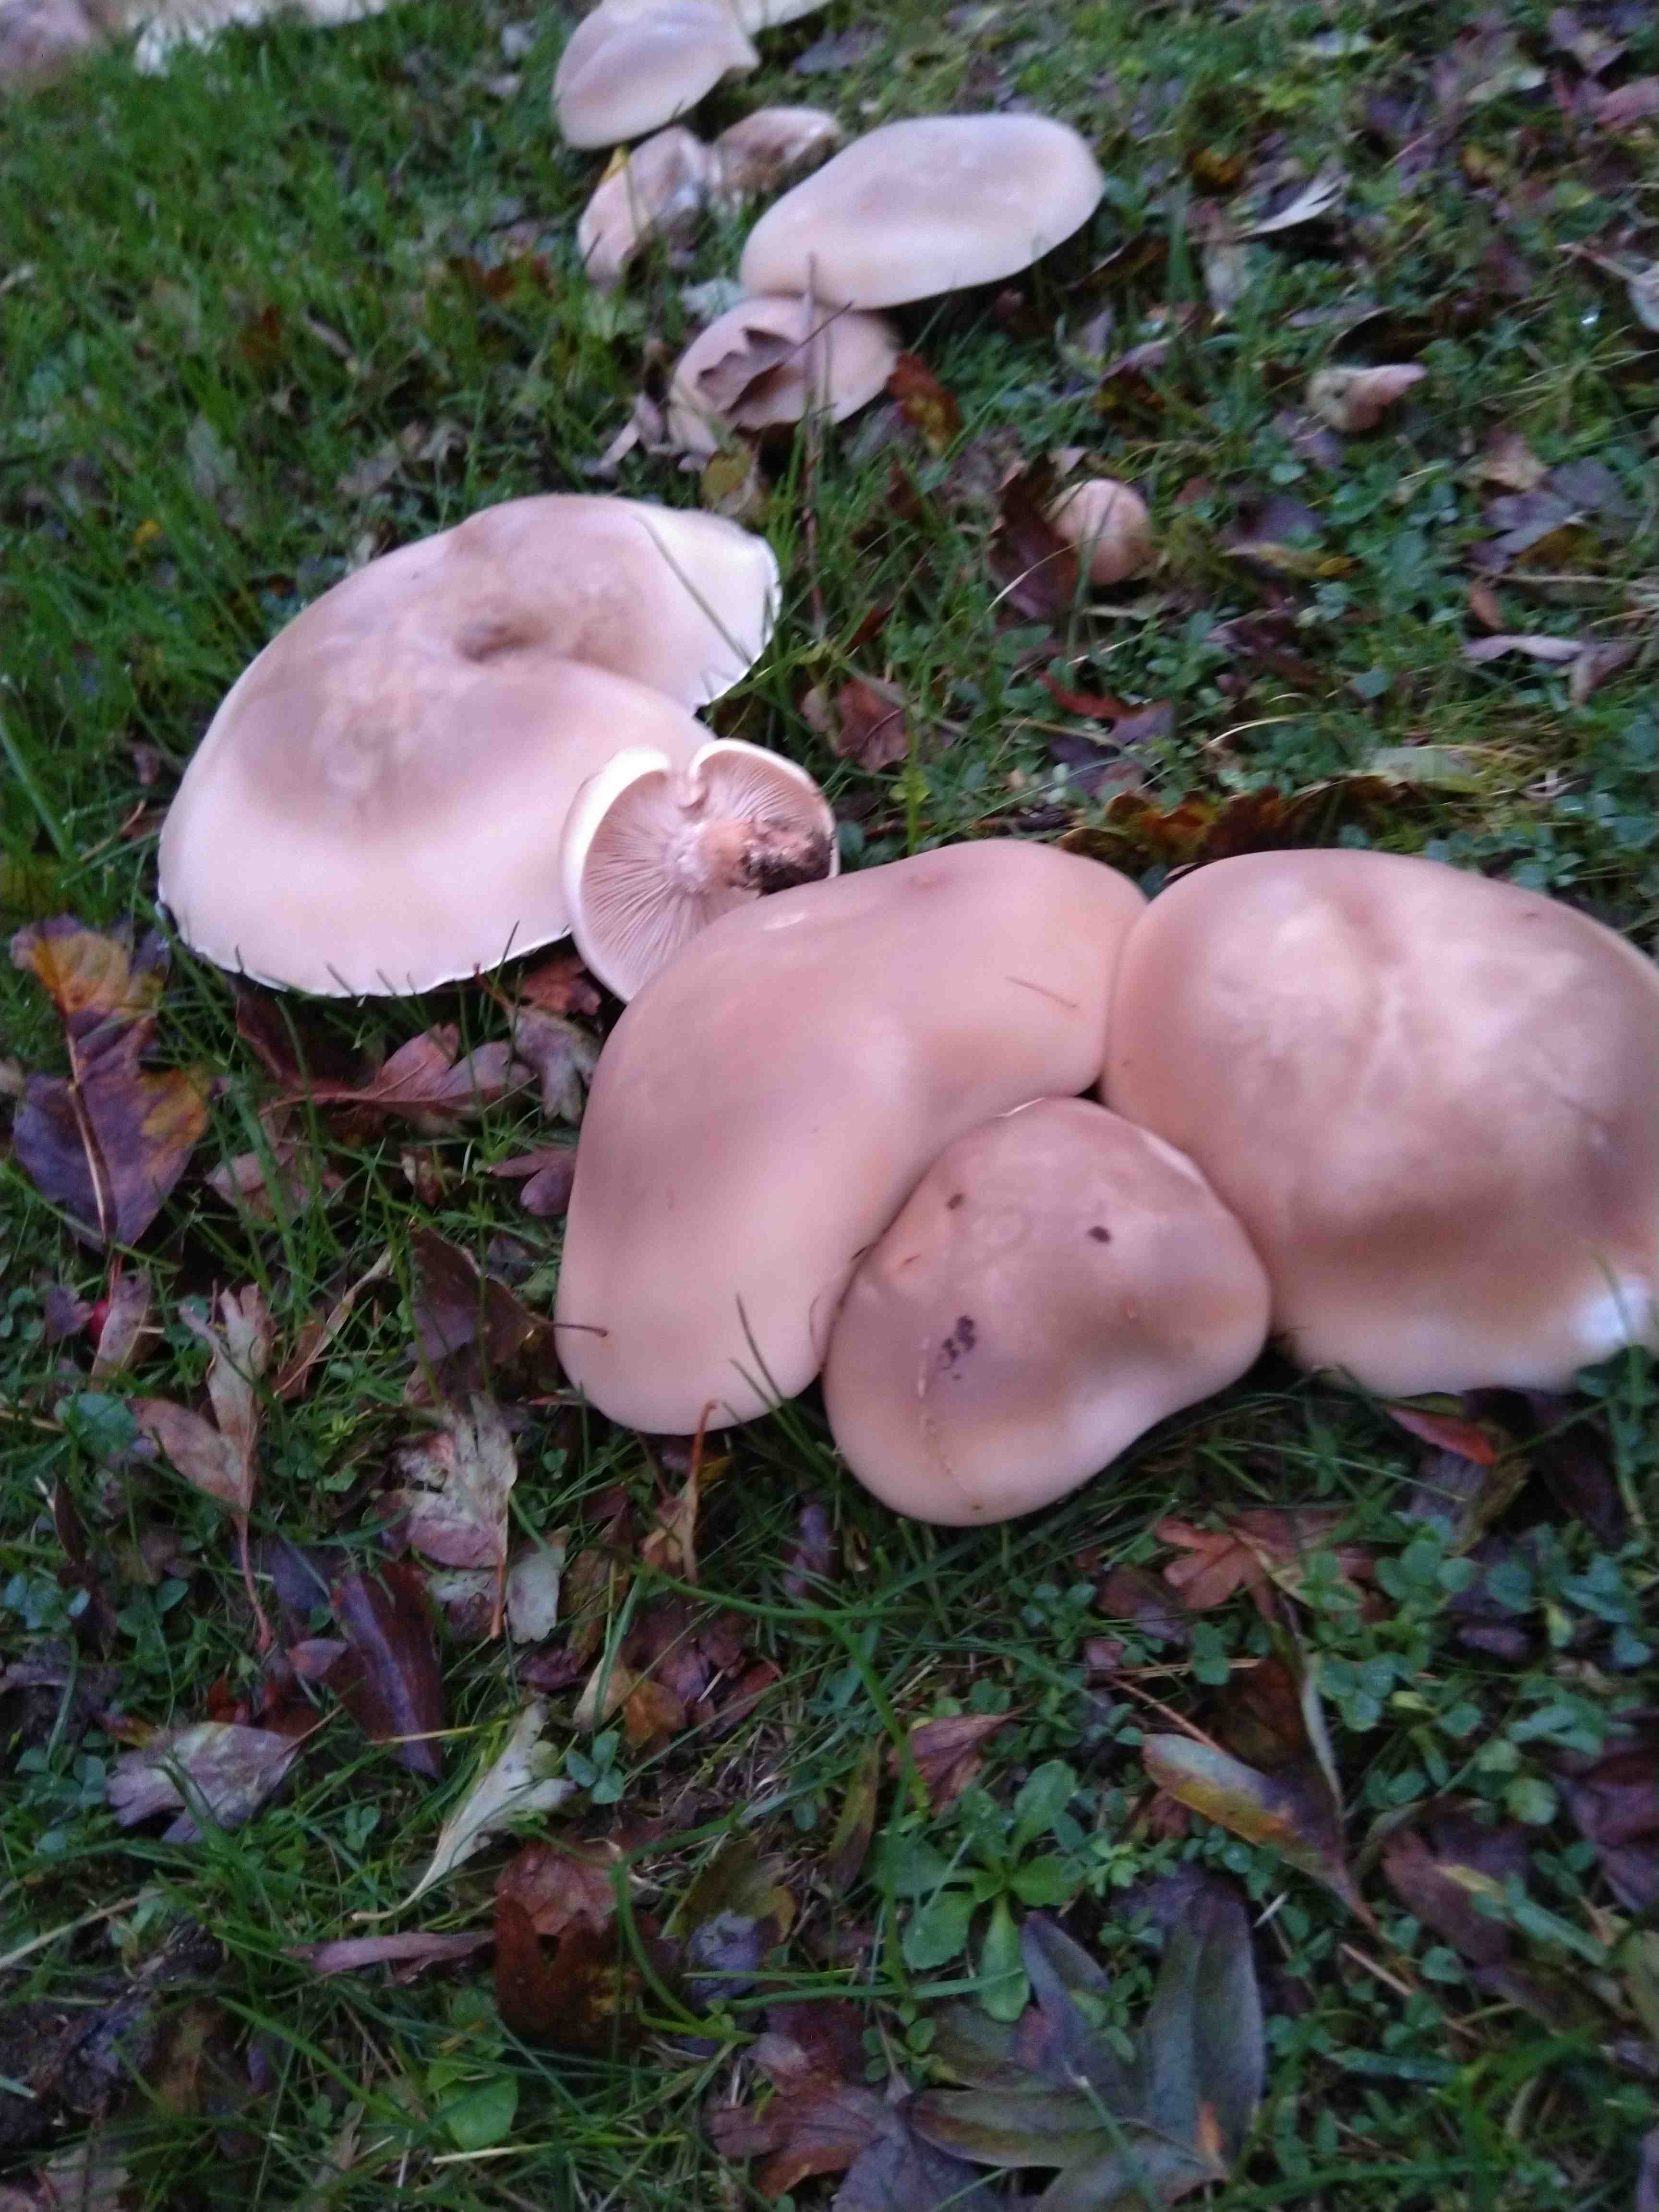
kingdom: Fungi
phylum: Basidiomycota
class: Agaricomycetes
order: Agaricales
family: Tricholomataceae
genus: Lepista
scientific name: Lepista personata
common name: bleg hekseringshat
